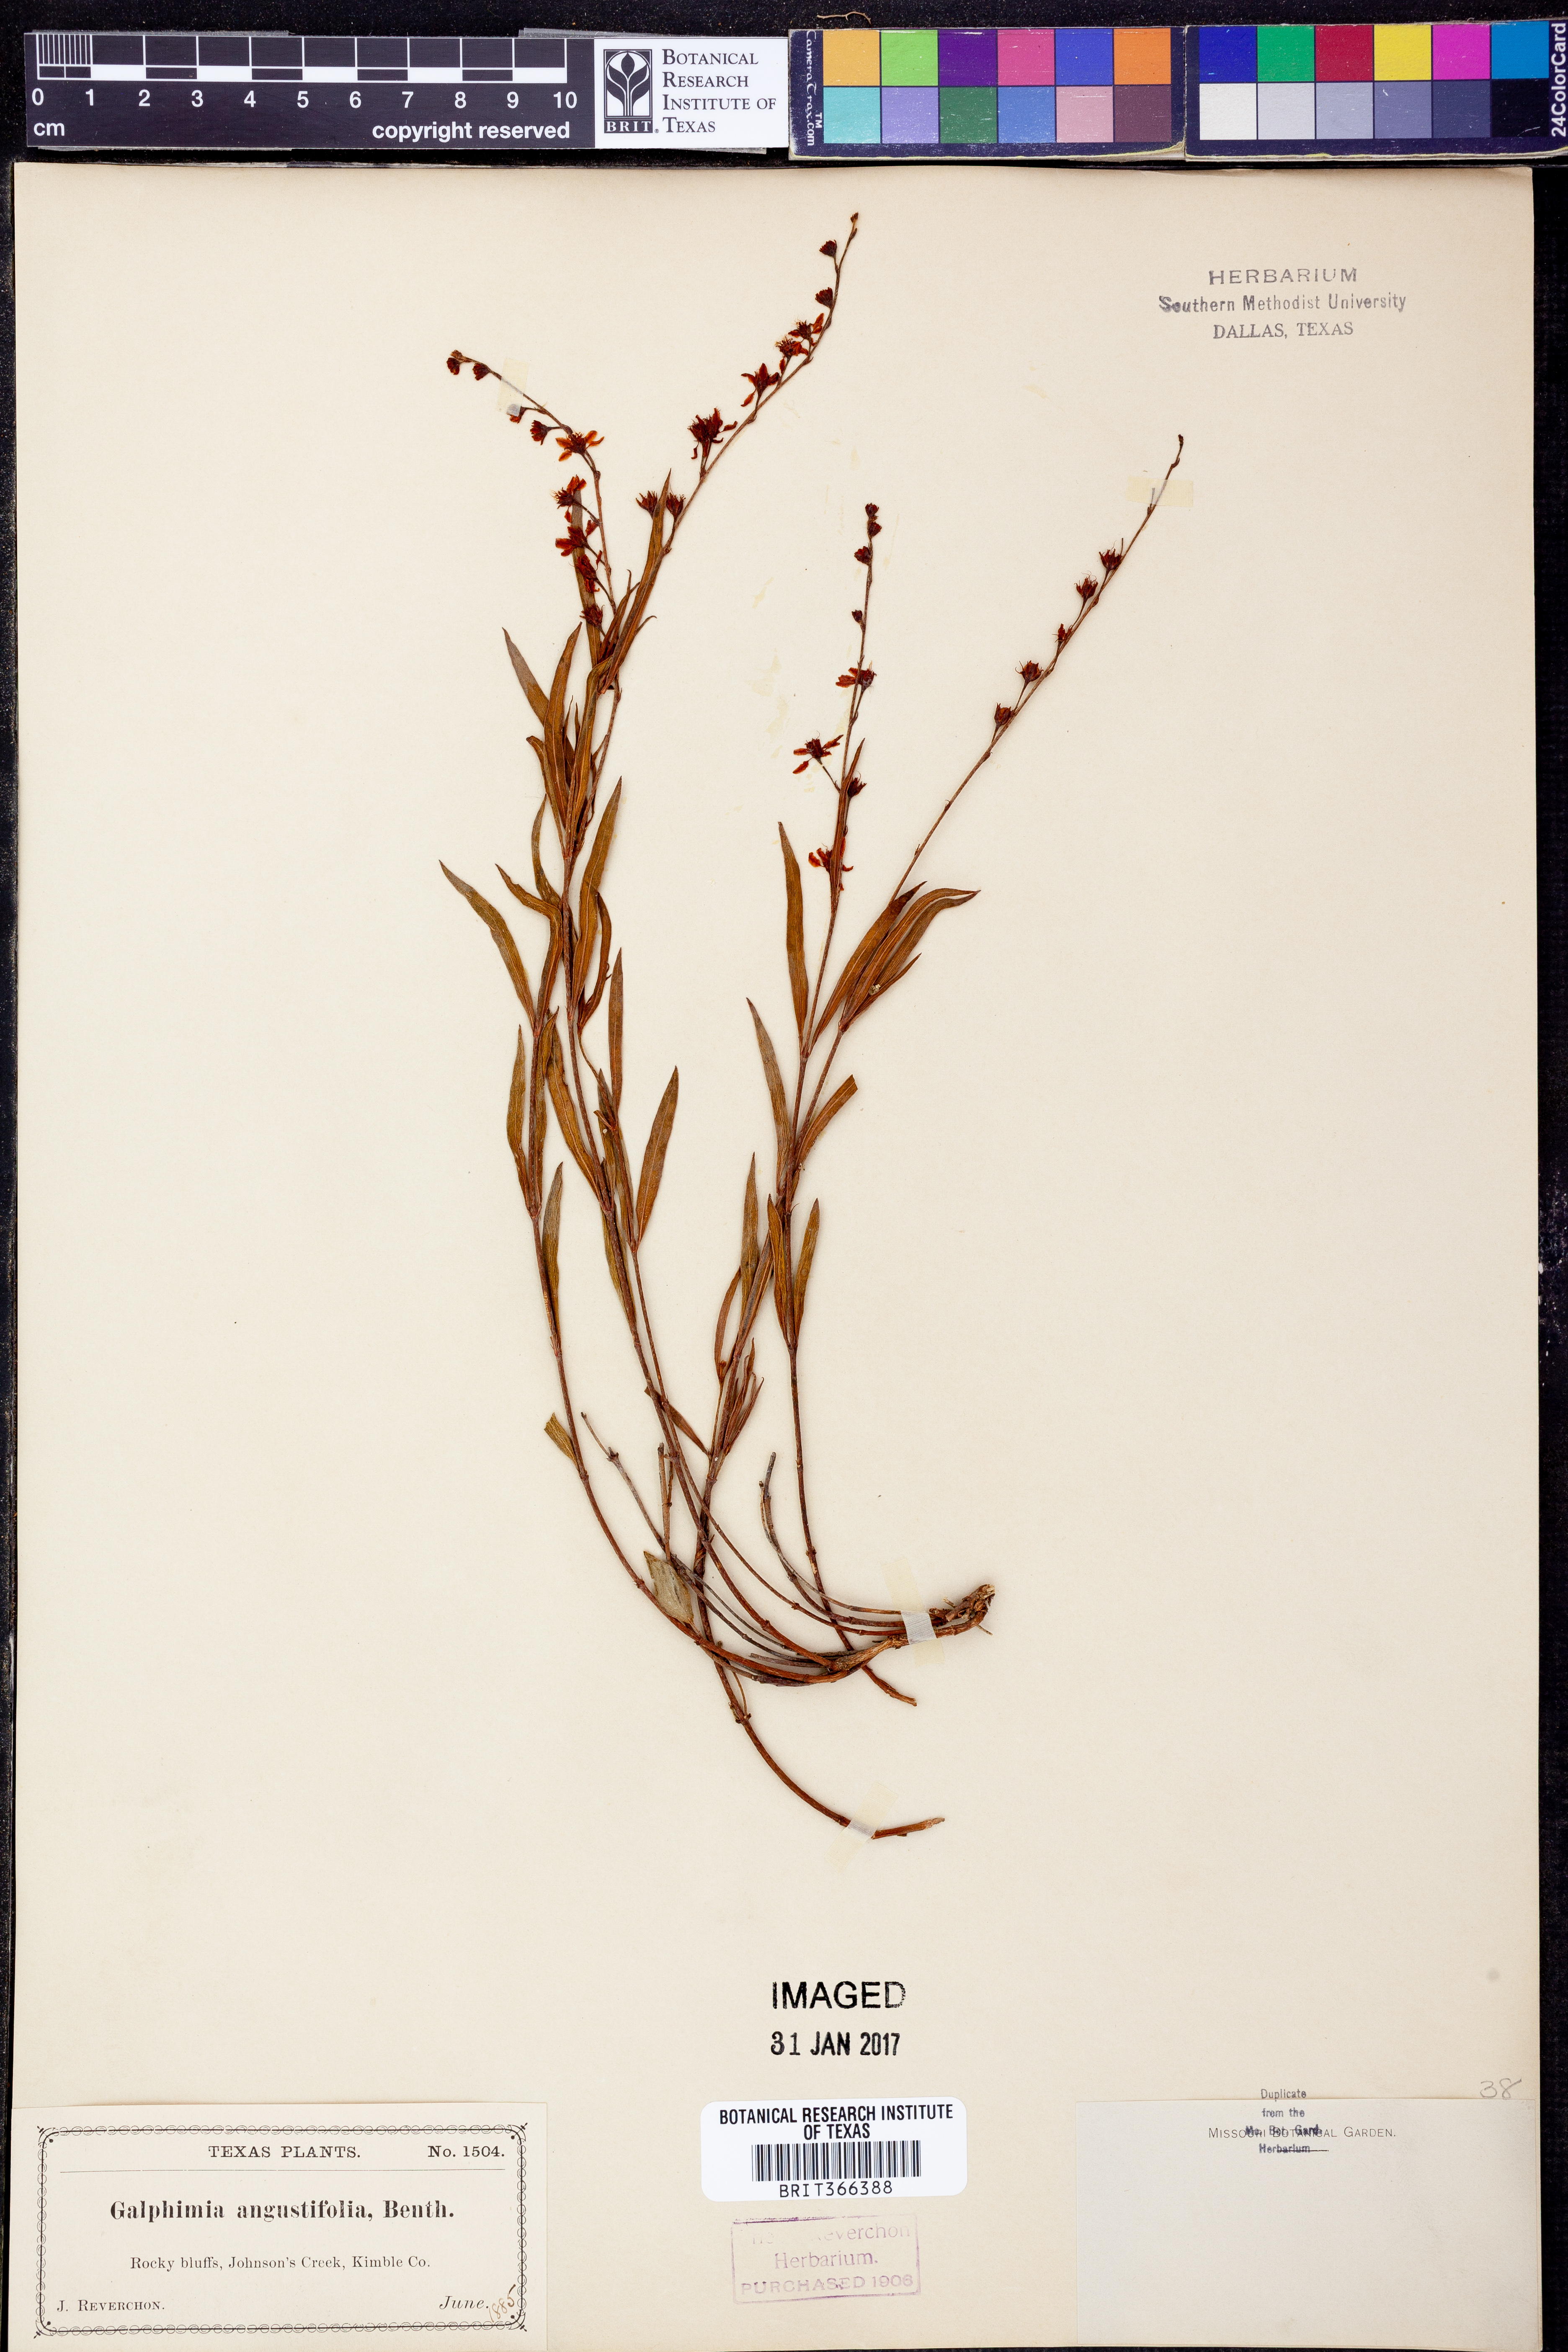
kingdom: Plantae
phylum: Tracheophyta
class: Magnoliopsida
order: Malpighiales
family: Malpighiaceae
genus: Galphimia
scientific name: Galphimia angustifolia
